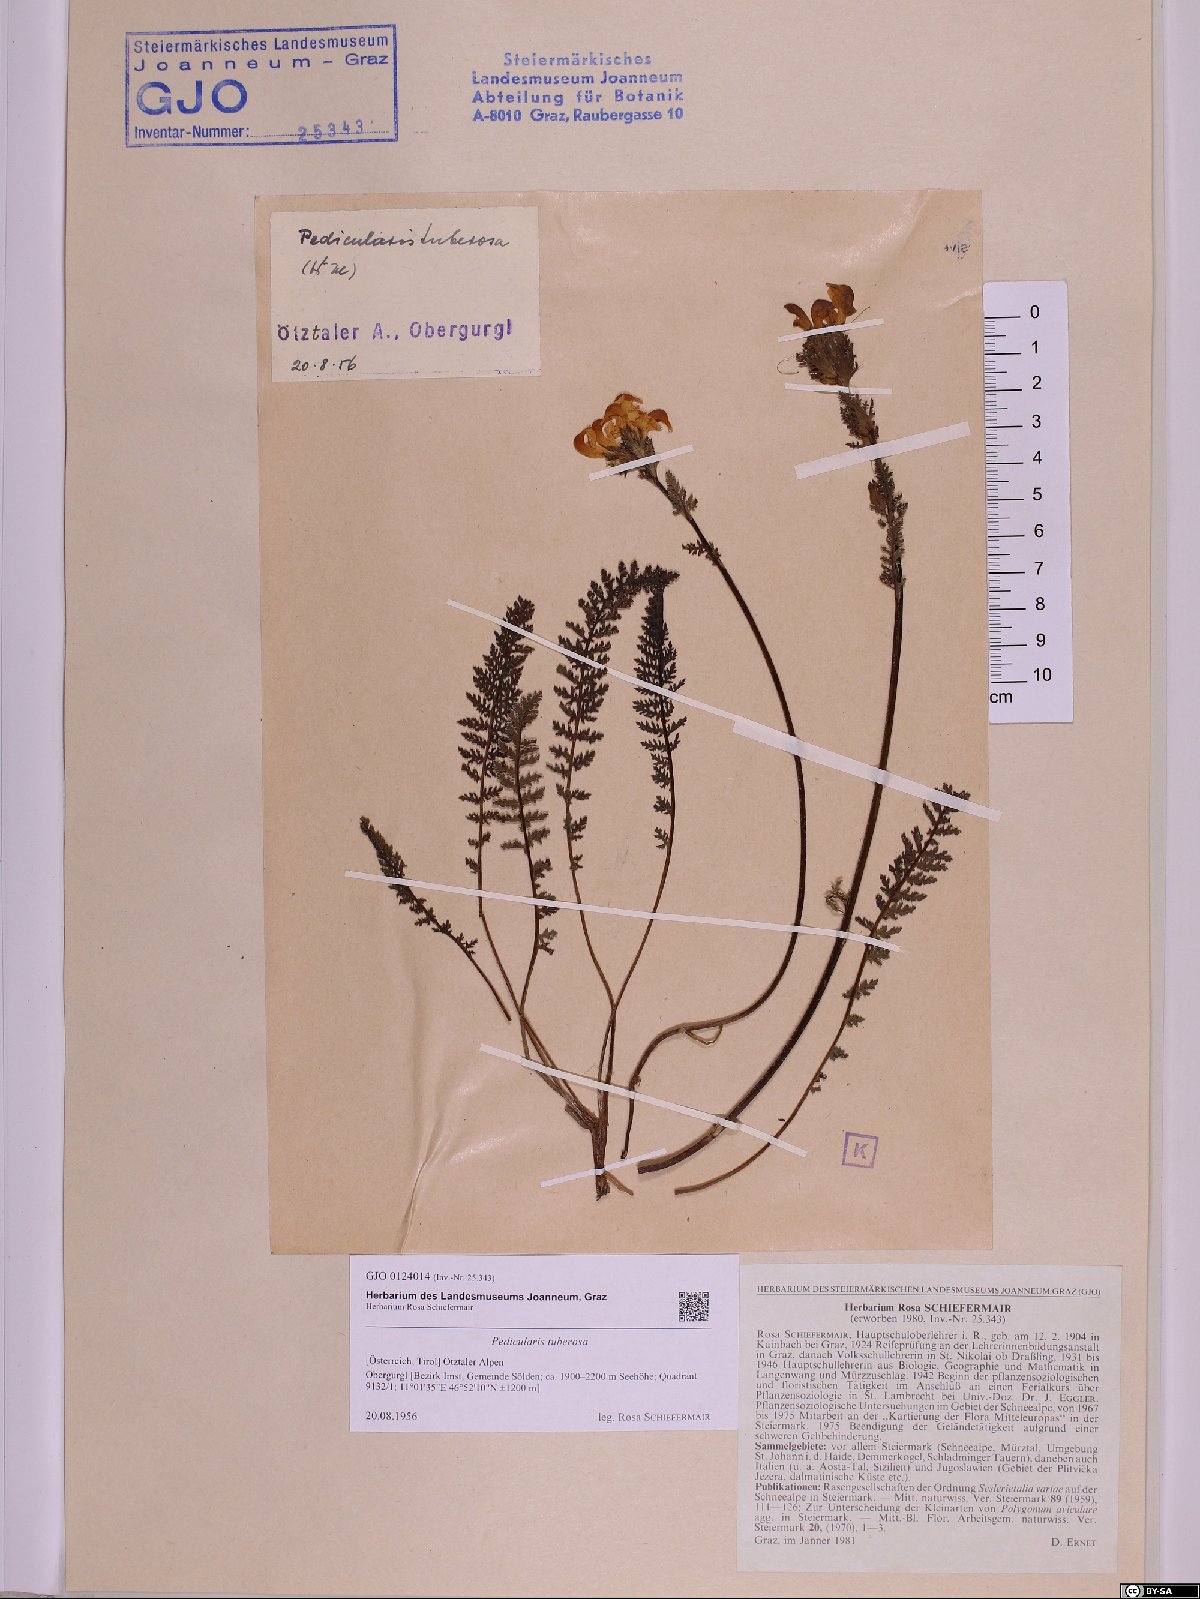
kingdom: Plantae
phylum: Tracheophyta
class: Magnoliopsida
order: Lamiales
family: Orobanchaceae
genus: Pedicularis
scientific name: Pedicularis tuberosa
